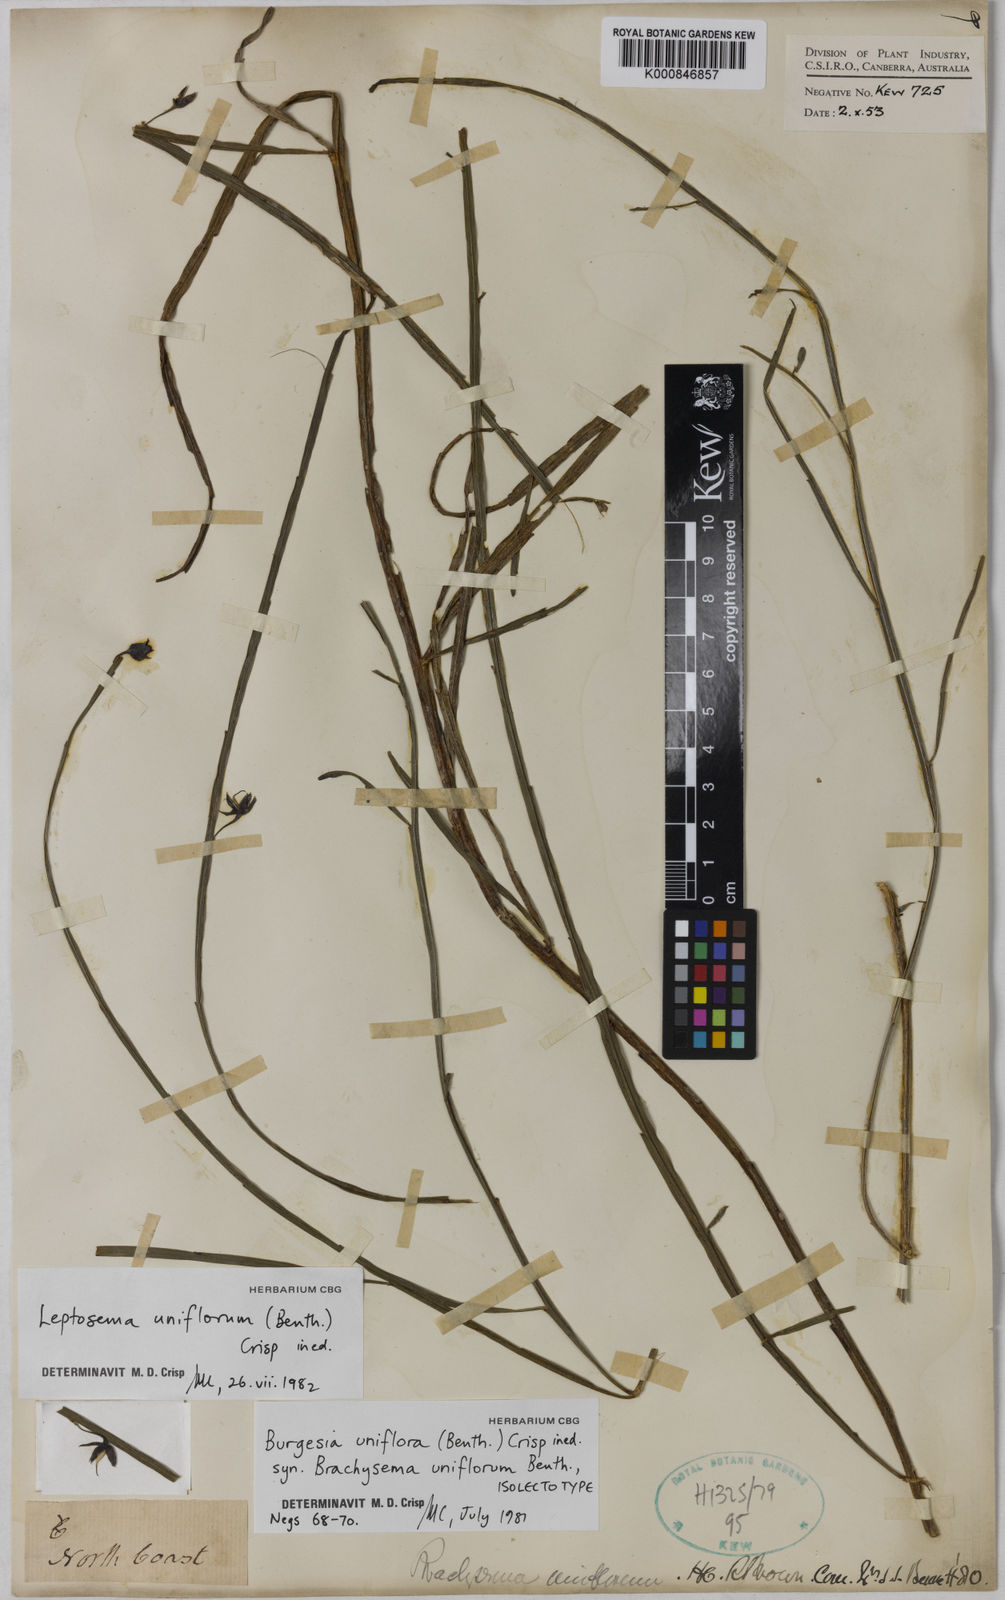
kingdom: Plantae
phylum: Tracheophyta
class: Magnoliopsida
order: Fabales
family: Fabaceae
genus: Leptosema
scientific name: Leptosema uniflorum
